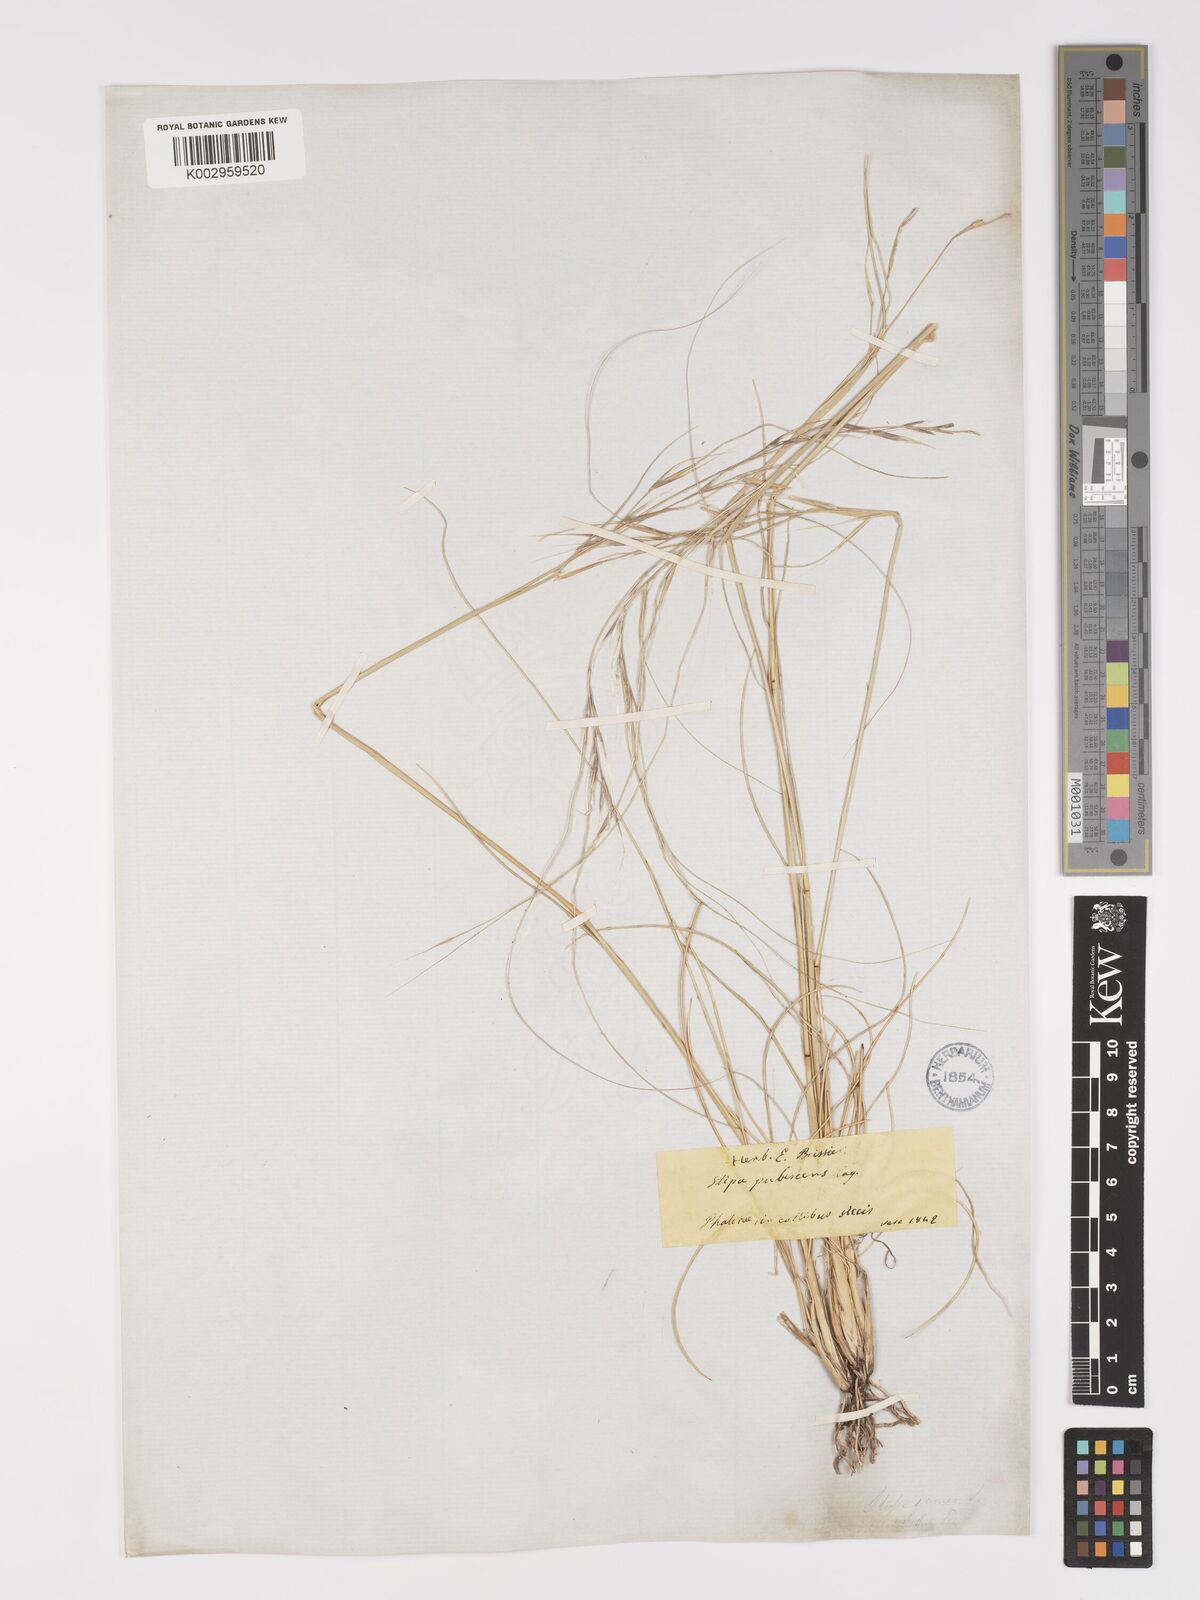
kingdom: Plantae
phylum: Tracheophyta
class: Liliopsida
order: Poales
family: Poaceae
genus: Stipa
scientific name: Stipa holosericea
